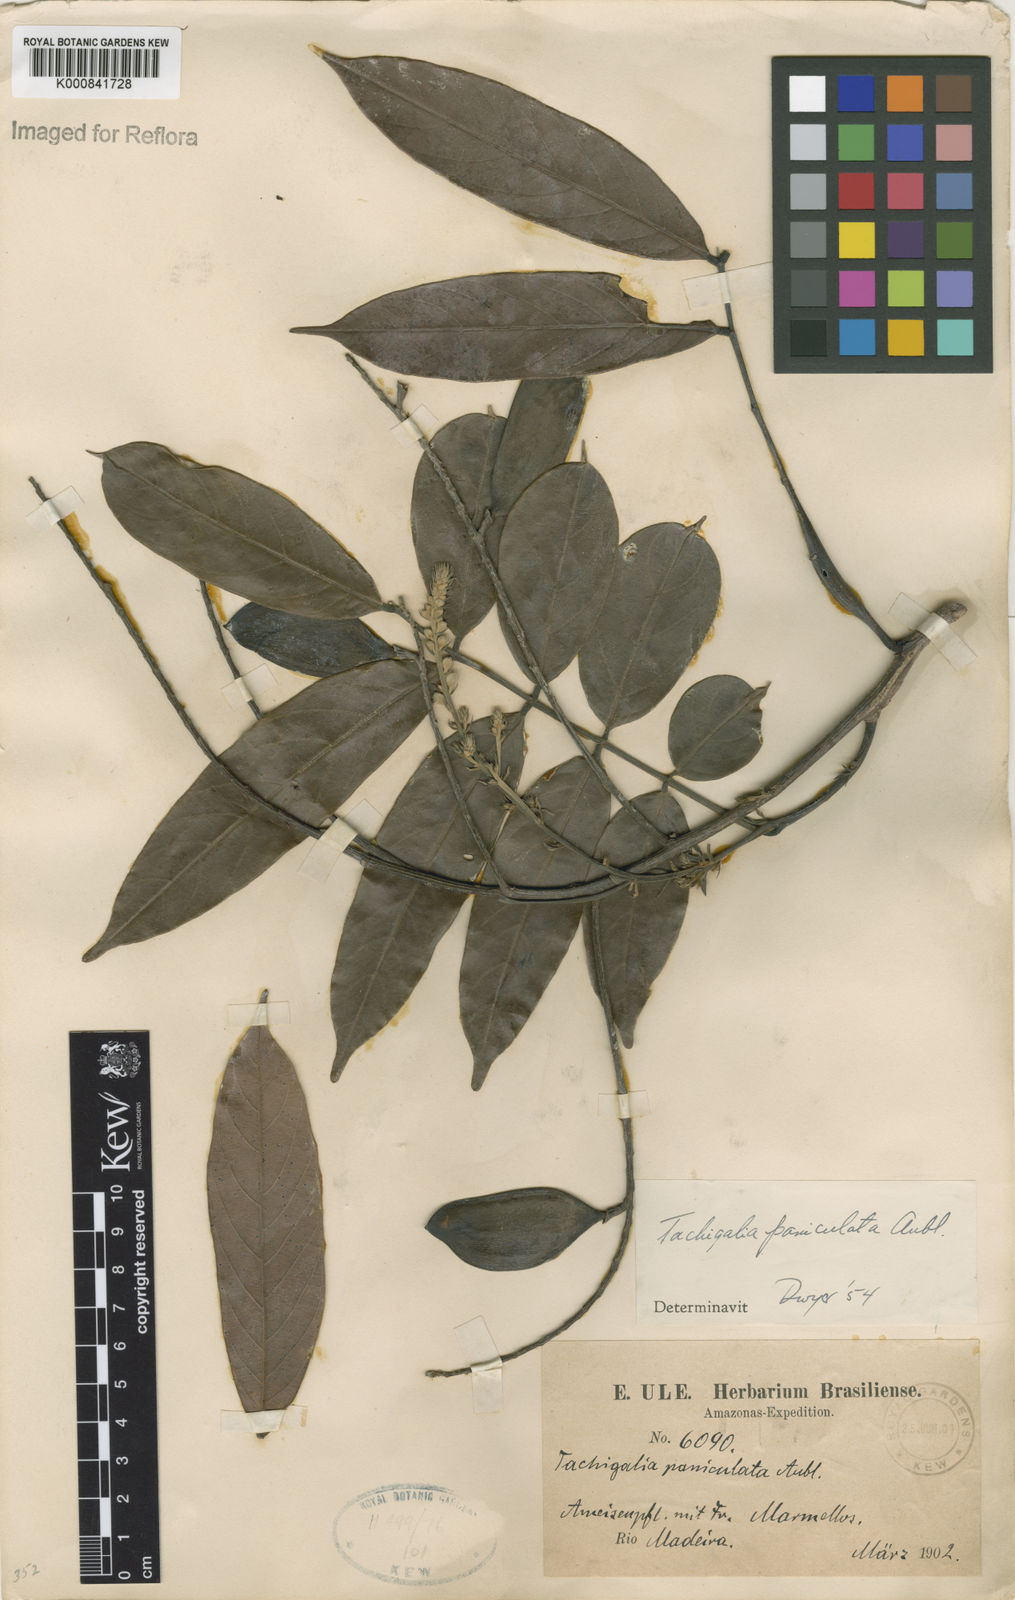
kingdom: Plantae
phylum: Tracheophyta
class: Magnoliopsida
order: Fabales
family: Fabaceae
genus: Tachigali
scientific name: Tachigali paniculata
